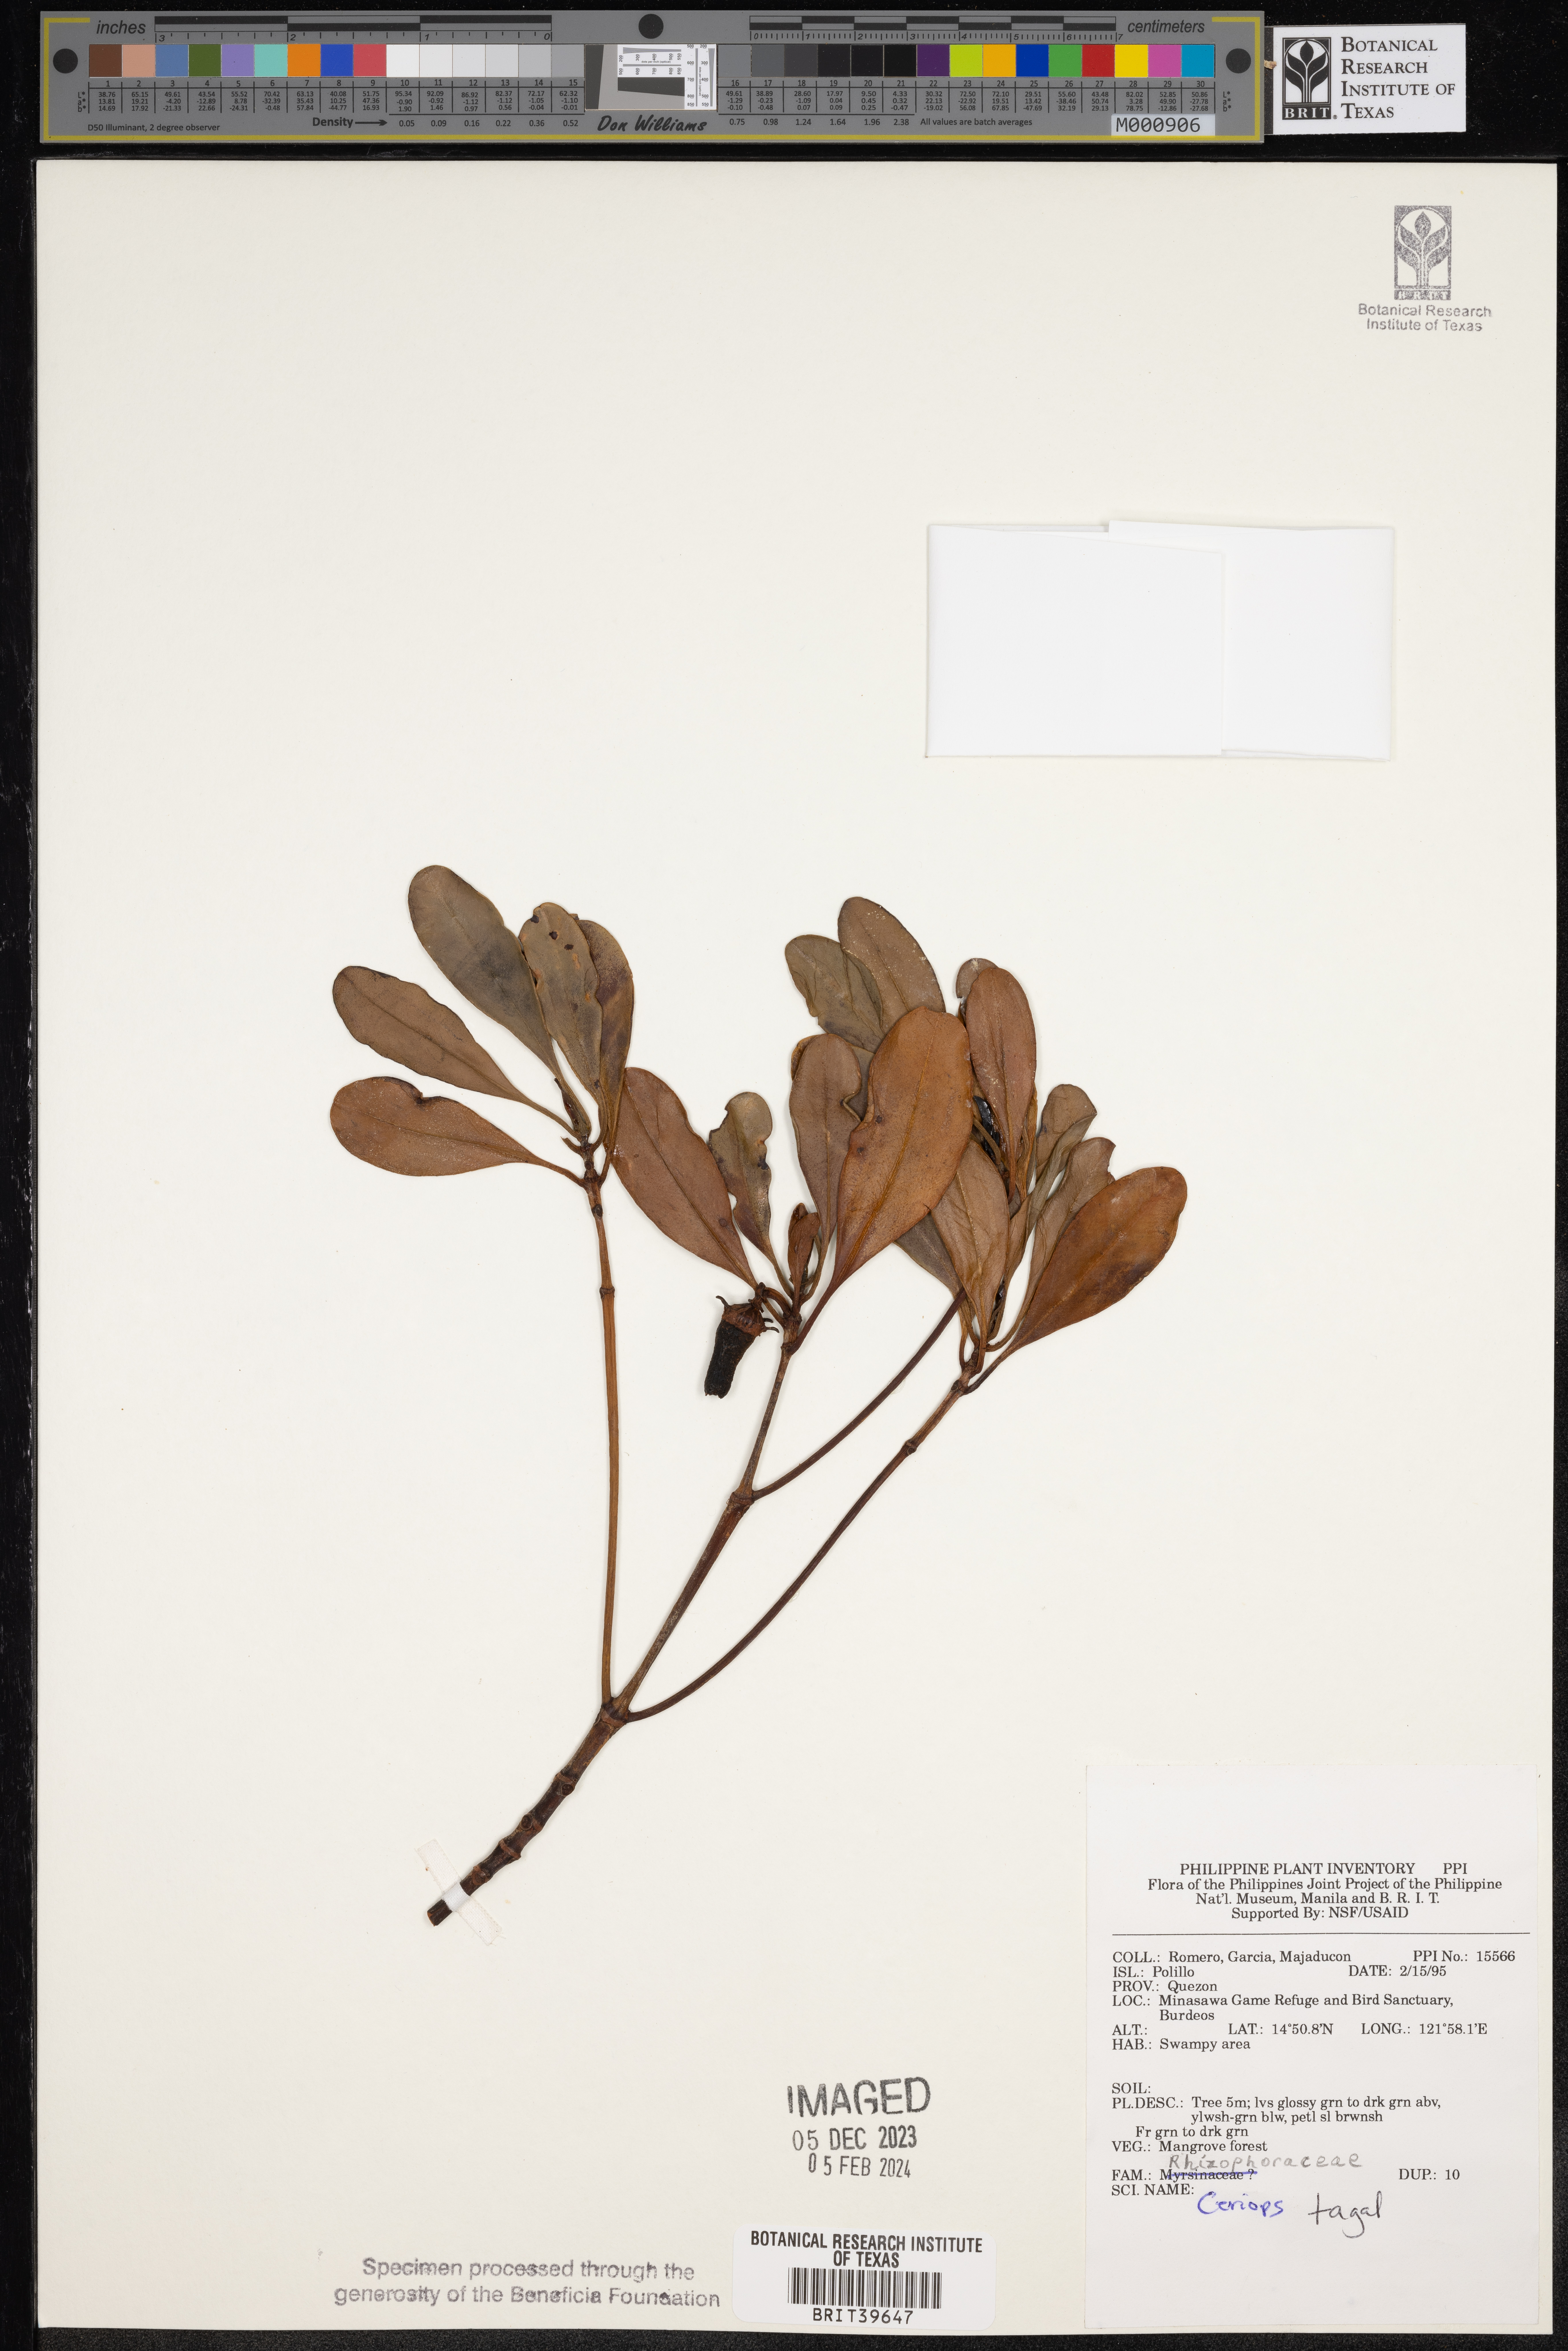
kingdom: Plantae
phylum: Tracheophyta
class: Magnoliopsida
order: Malpighiales
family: Rhizophoraceae
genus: Ceriops
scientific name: Ceriops tagal
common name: Spurred mangrove
